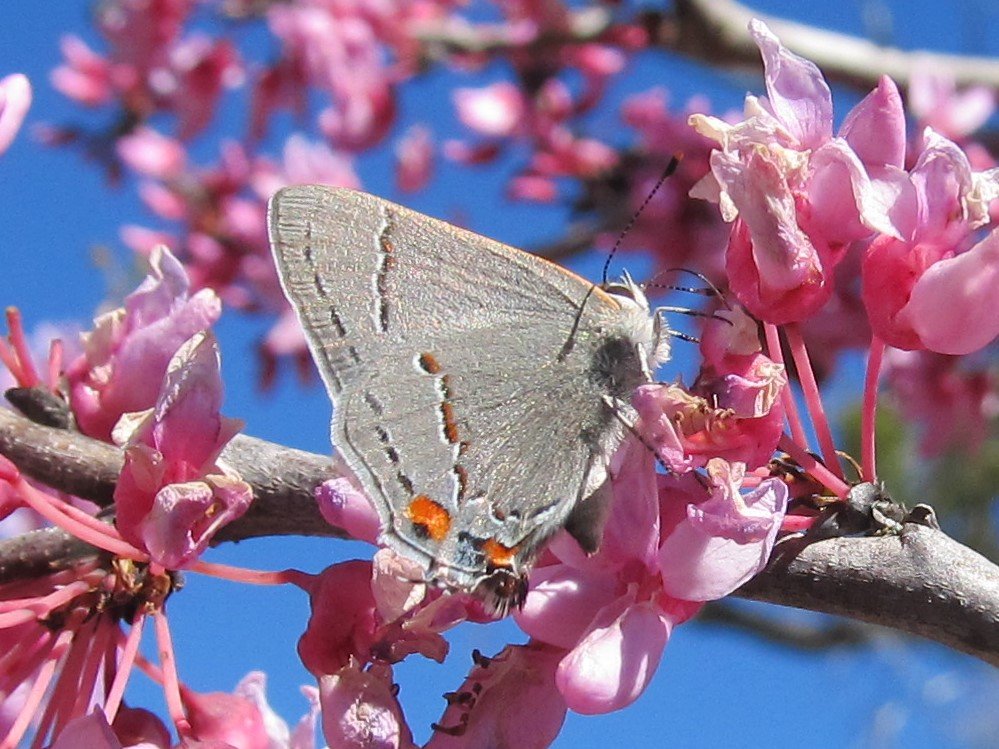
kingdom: Animalia
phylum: Arthropoda
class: Insecta
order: Lepidoptera
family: Lycaenidae
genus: Strymon
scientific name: Strymon melinus
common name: Gray Hairstreak
